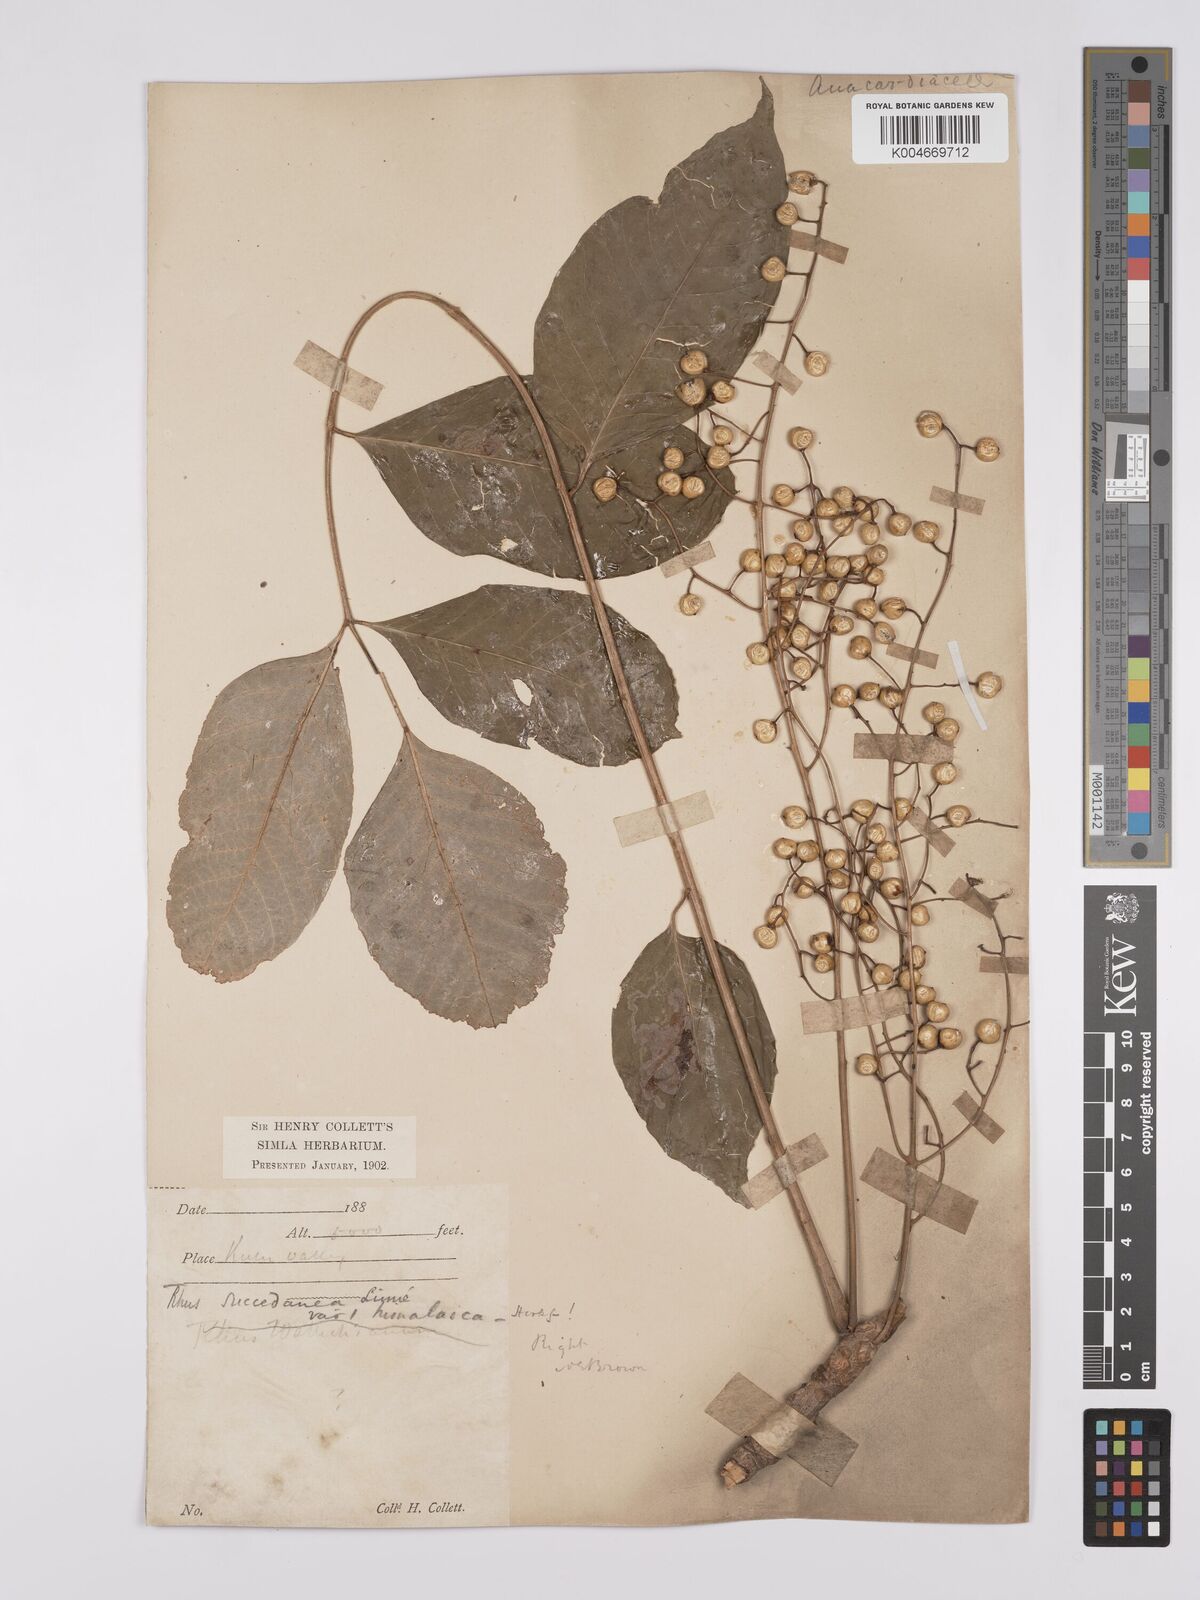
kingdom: Plantae
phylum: Tracheophyta
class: Magnoliopsida
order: Sapindales
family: Anacardiaceae
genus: Toxicodendron
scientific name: Toxicodendron succedaneum
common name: Wax tree
